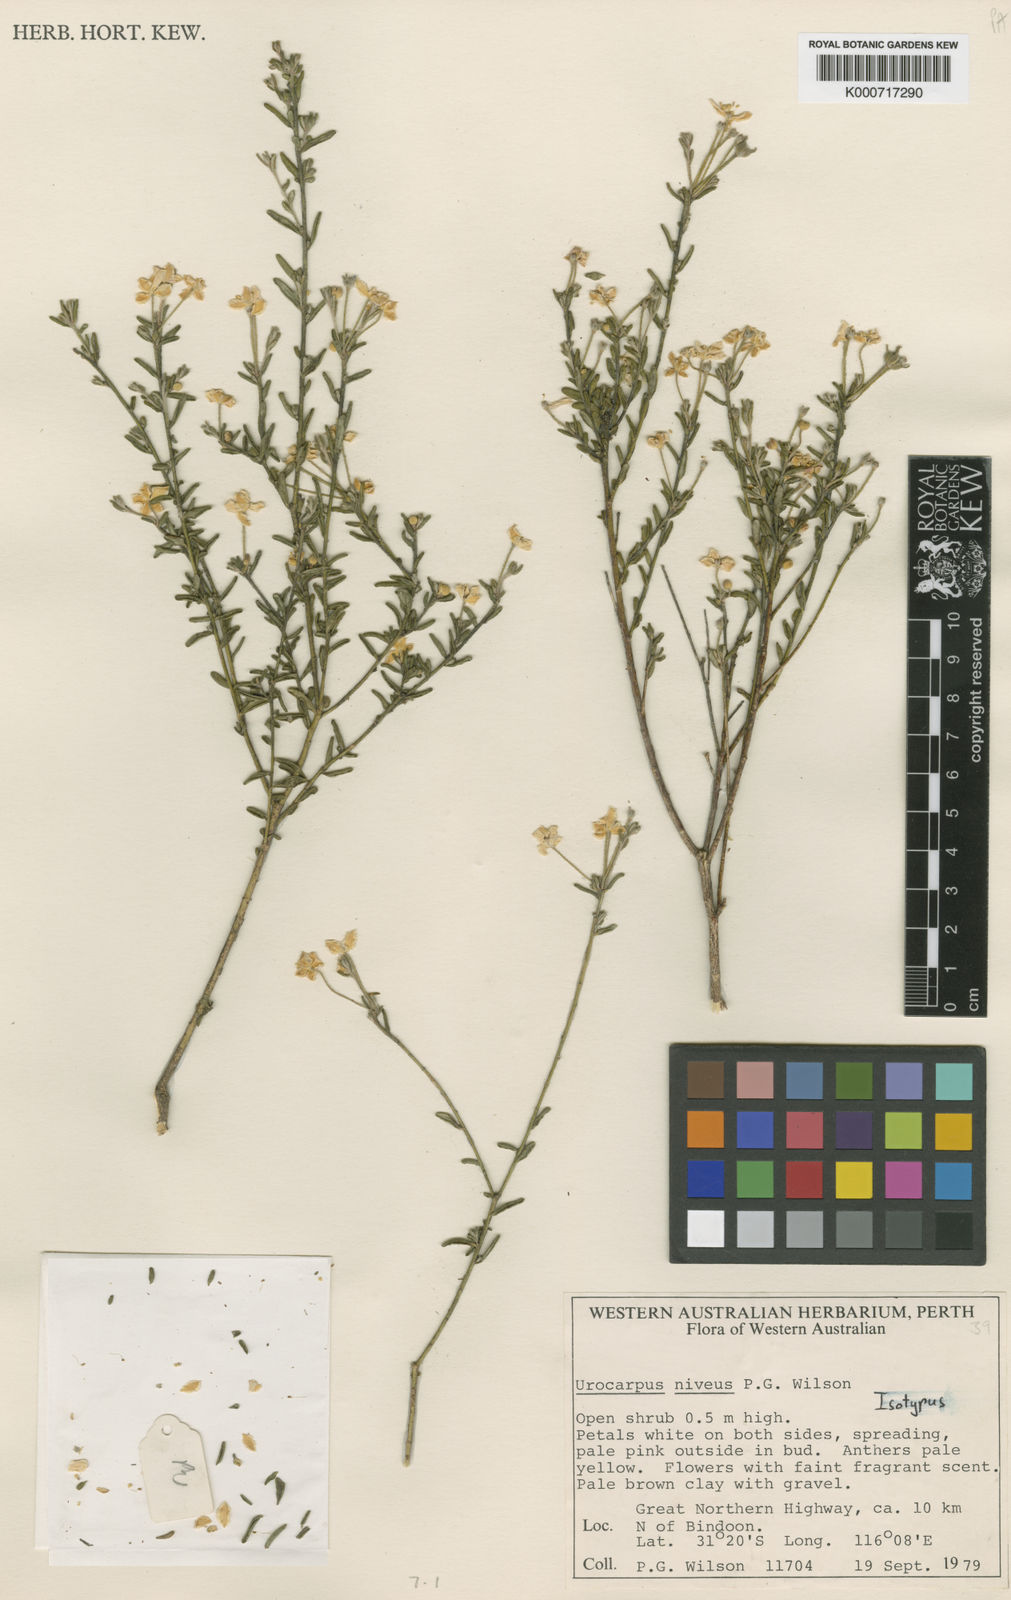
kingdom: Plantae
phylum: Tracheophyta
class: Magnoliopsida
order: Sapindales
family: Rutaceae
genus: Asterolasia
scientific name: Asterolasia nivea
